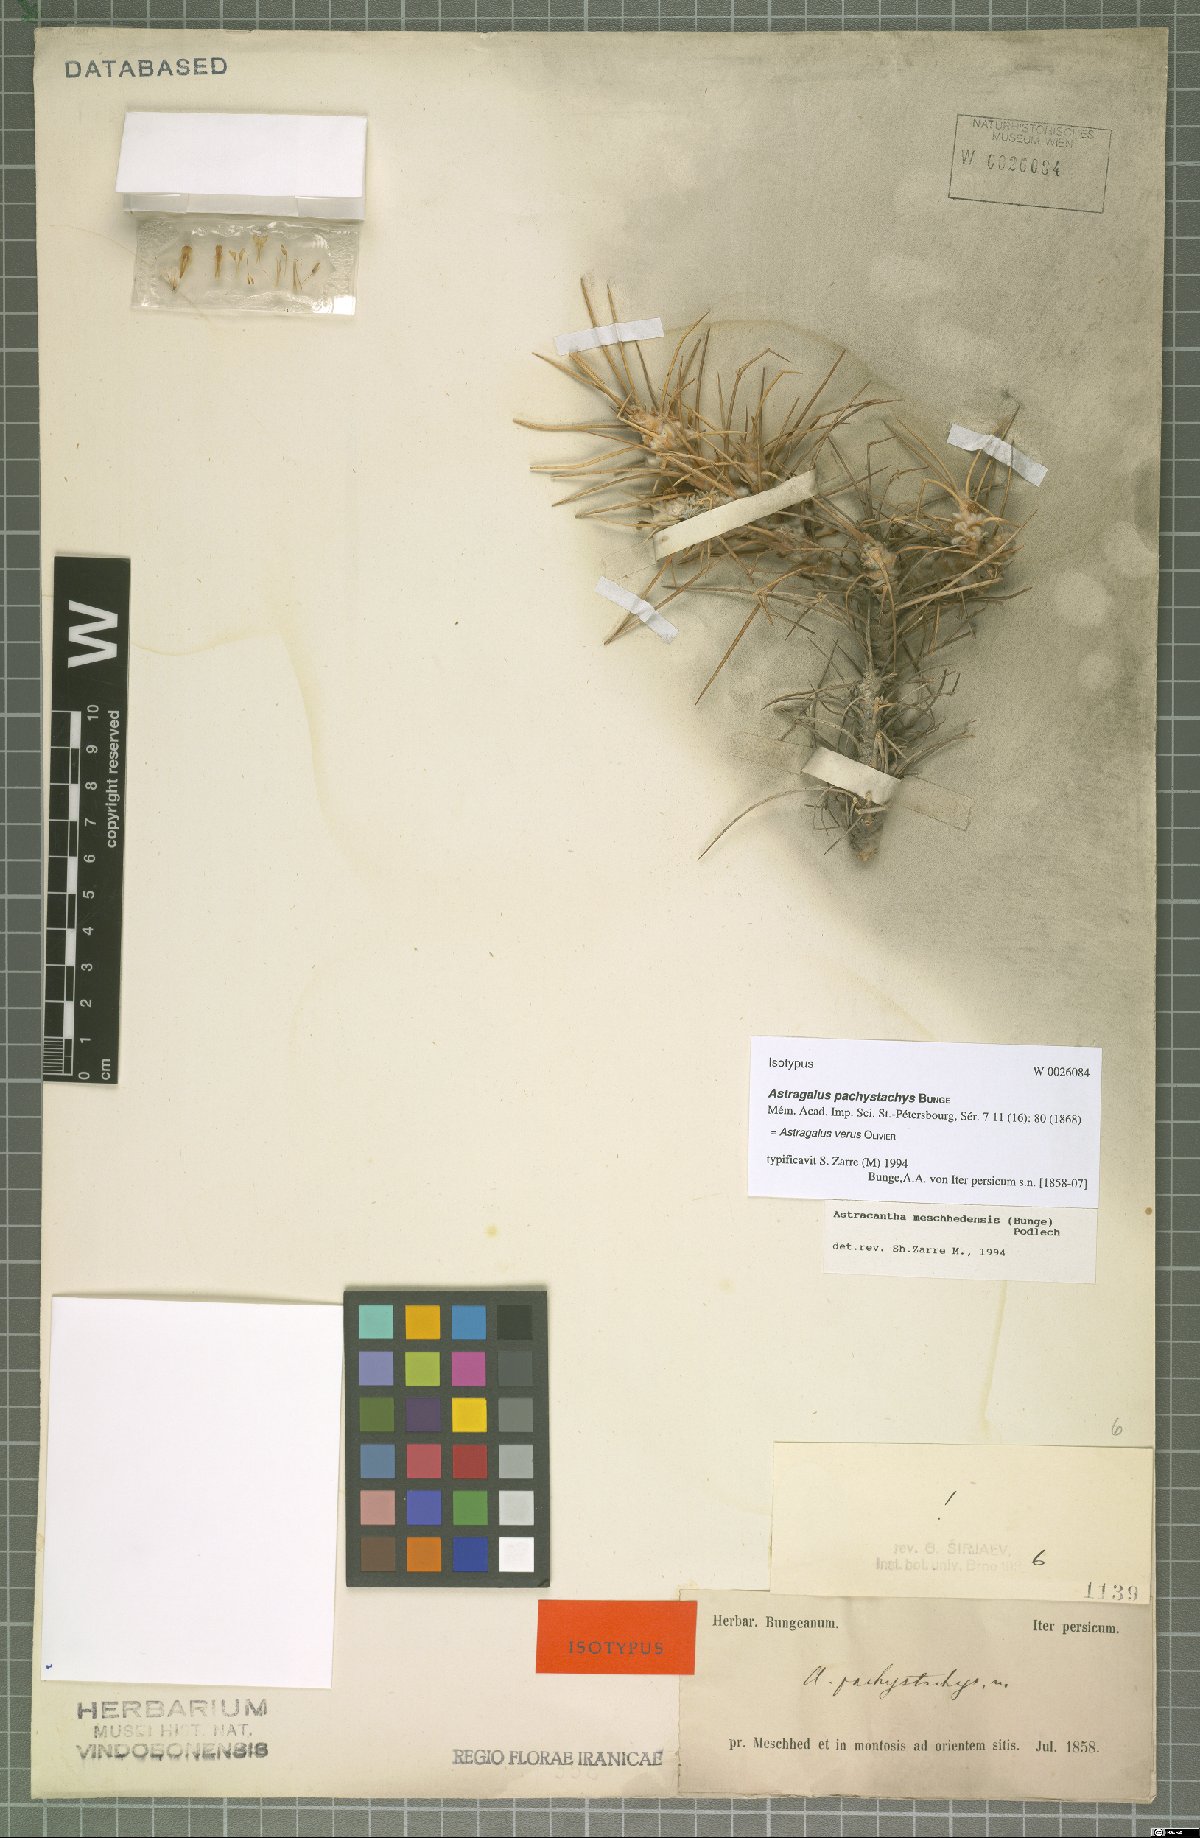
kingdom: Plantae
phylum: Tracheophyta
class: Magnoliopsida
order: Fabales
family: Fabaceae
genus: Astragalus
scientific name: Astragalus verus
